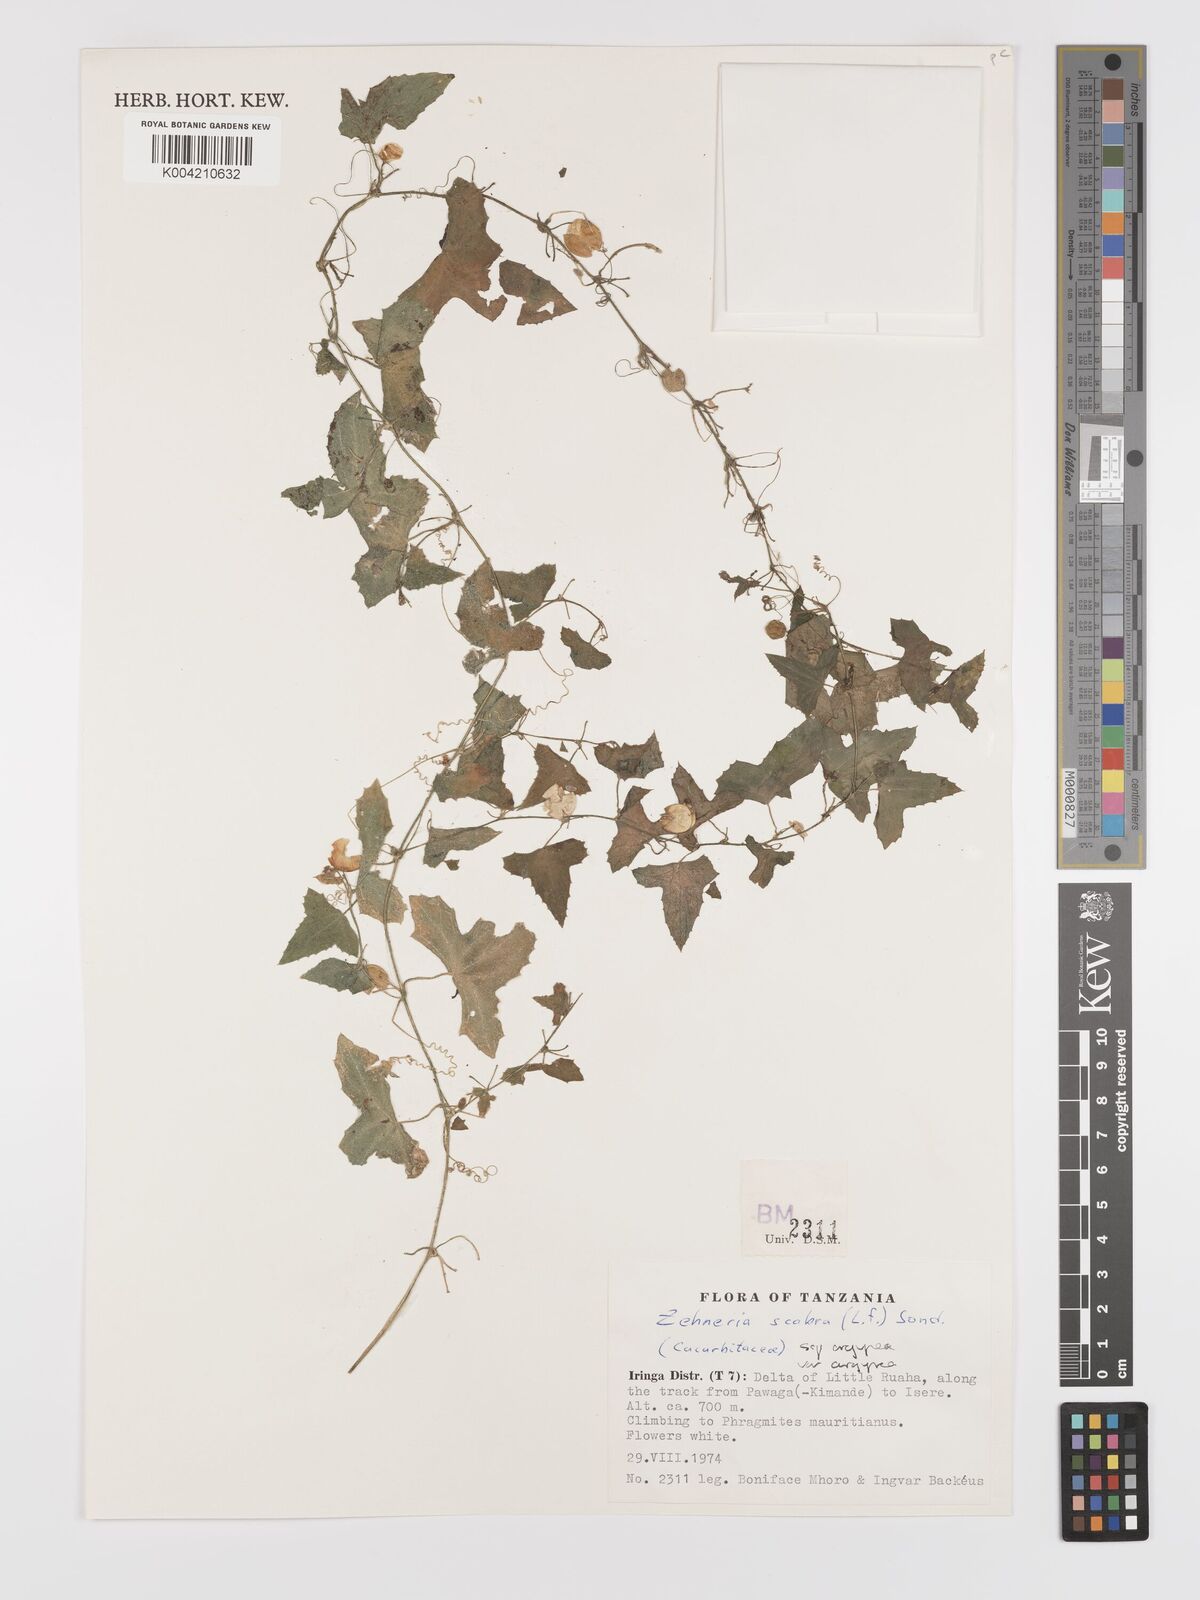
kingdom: Plantae
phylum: Tracheophyta
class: Magnoliopsida
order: Cucurbitales
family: Cucurbitaceae
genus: Zehneria
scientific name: Zehneria scabra
